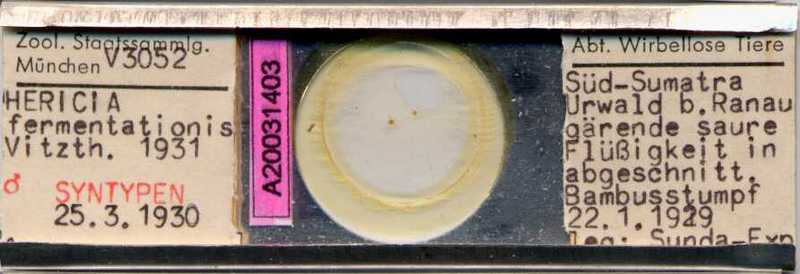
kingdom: Animalia
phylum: Arthropoda
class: Arachnida
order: Sarcoptiformes
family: Algophagidae
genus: Hericia
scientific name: Hericia fermentationis
